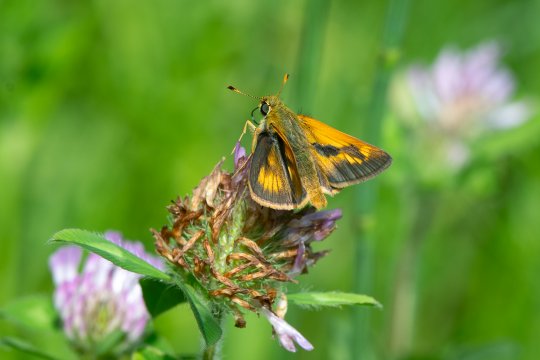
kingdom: Animalia
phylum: Arthropoda
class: Insecta
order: Lepidoptera
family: Hesperiidae
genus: Polites
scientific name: Polites
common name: Long Dash Skipper
